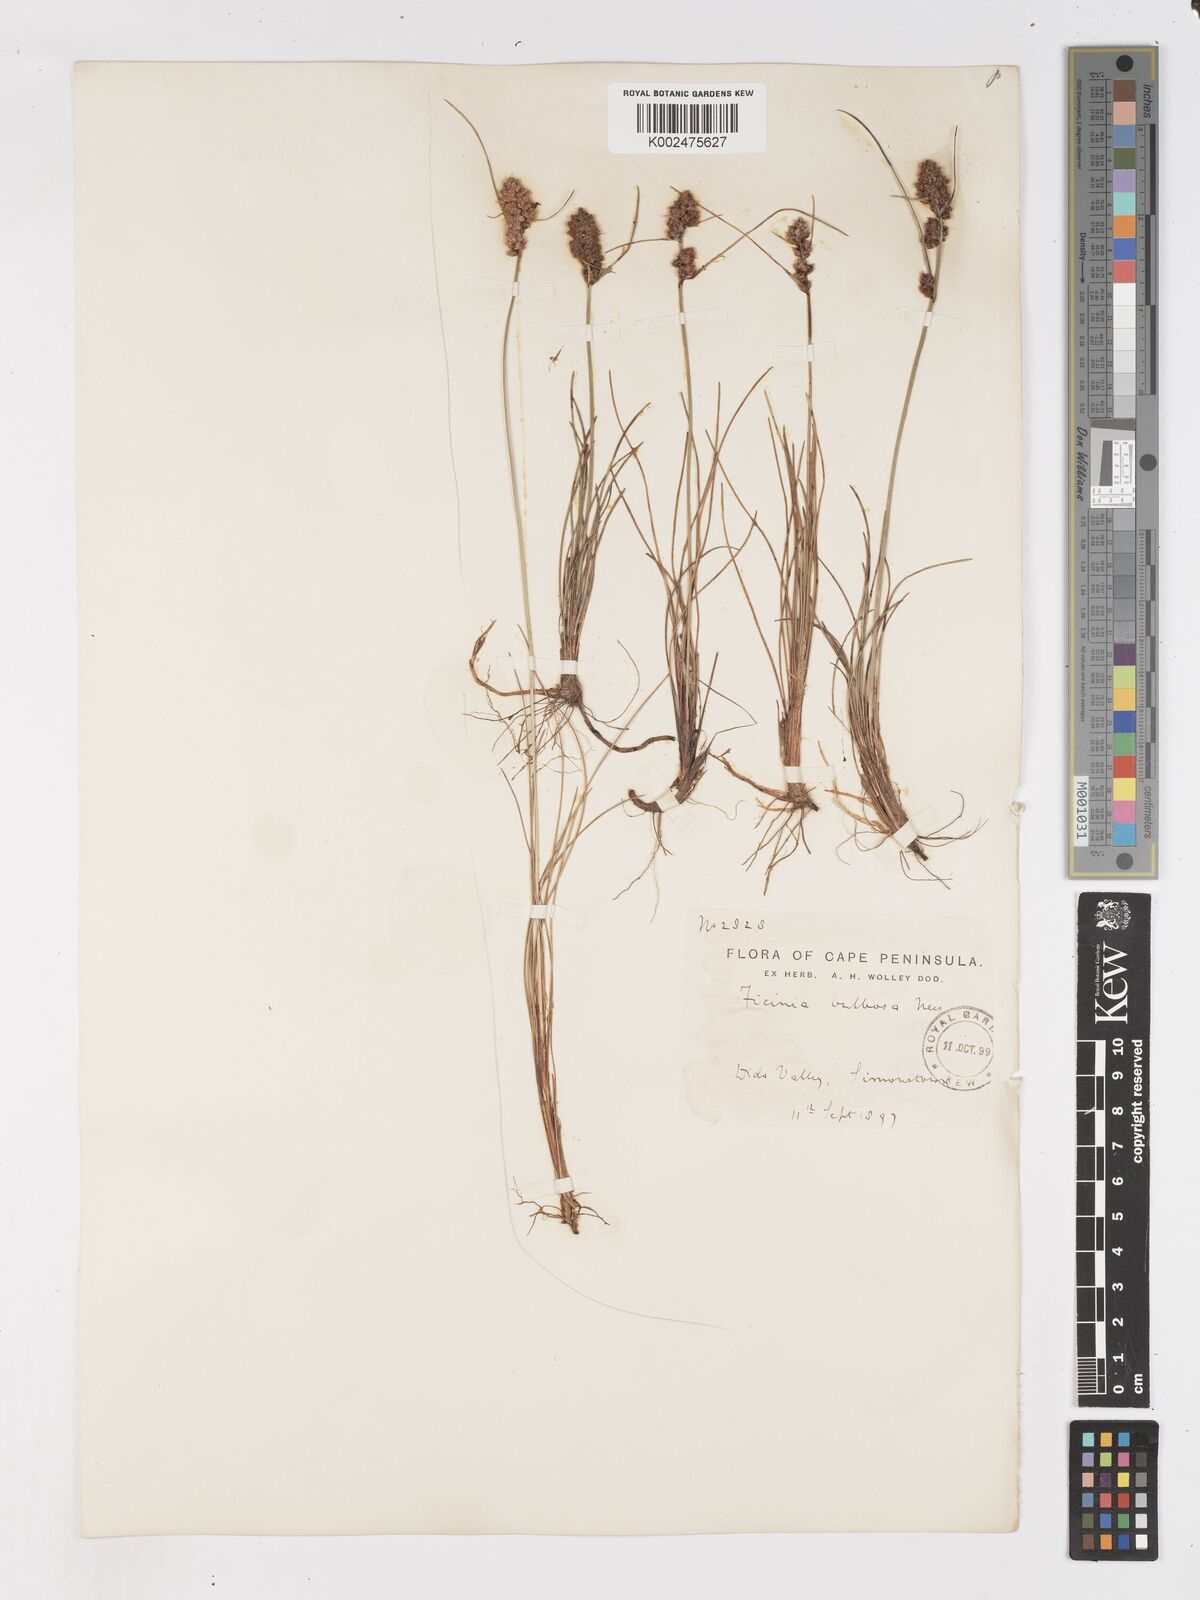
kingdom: Plantae
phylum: Tracheophyta
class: Liliopsida
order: Poales
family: Cyperaceae
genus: Ficinia
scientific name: Ficinia bulbosa
